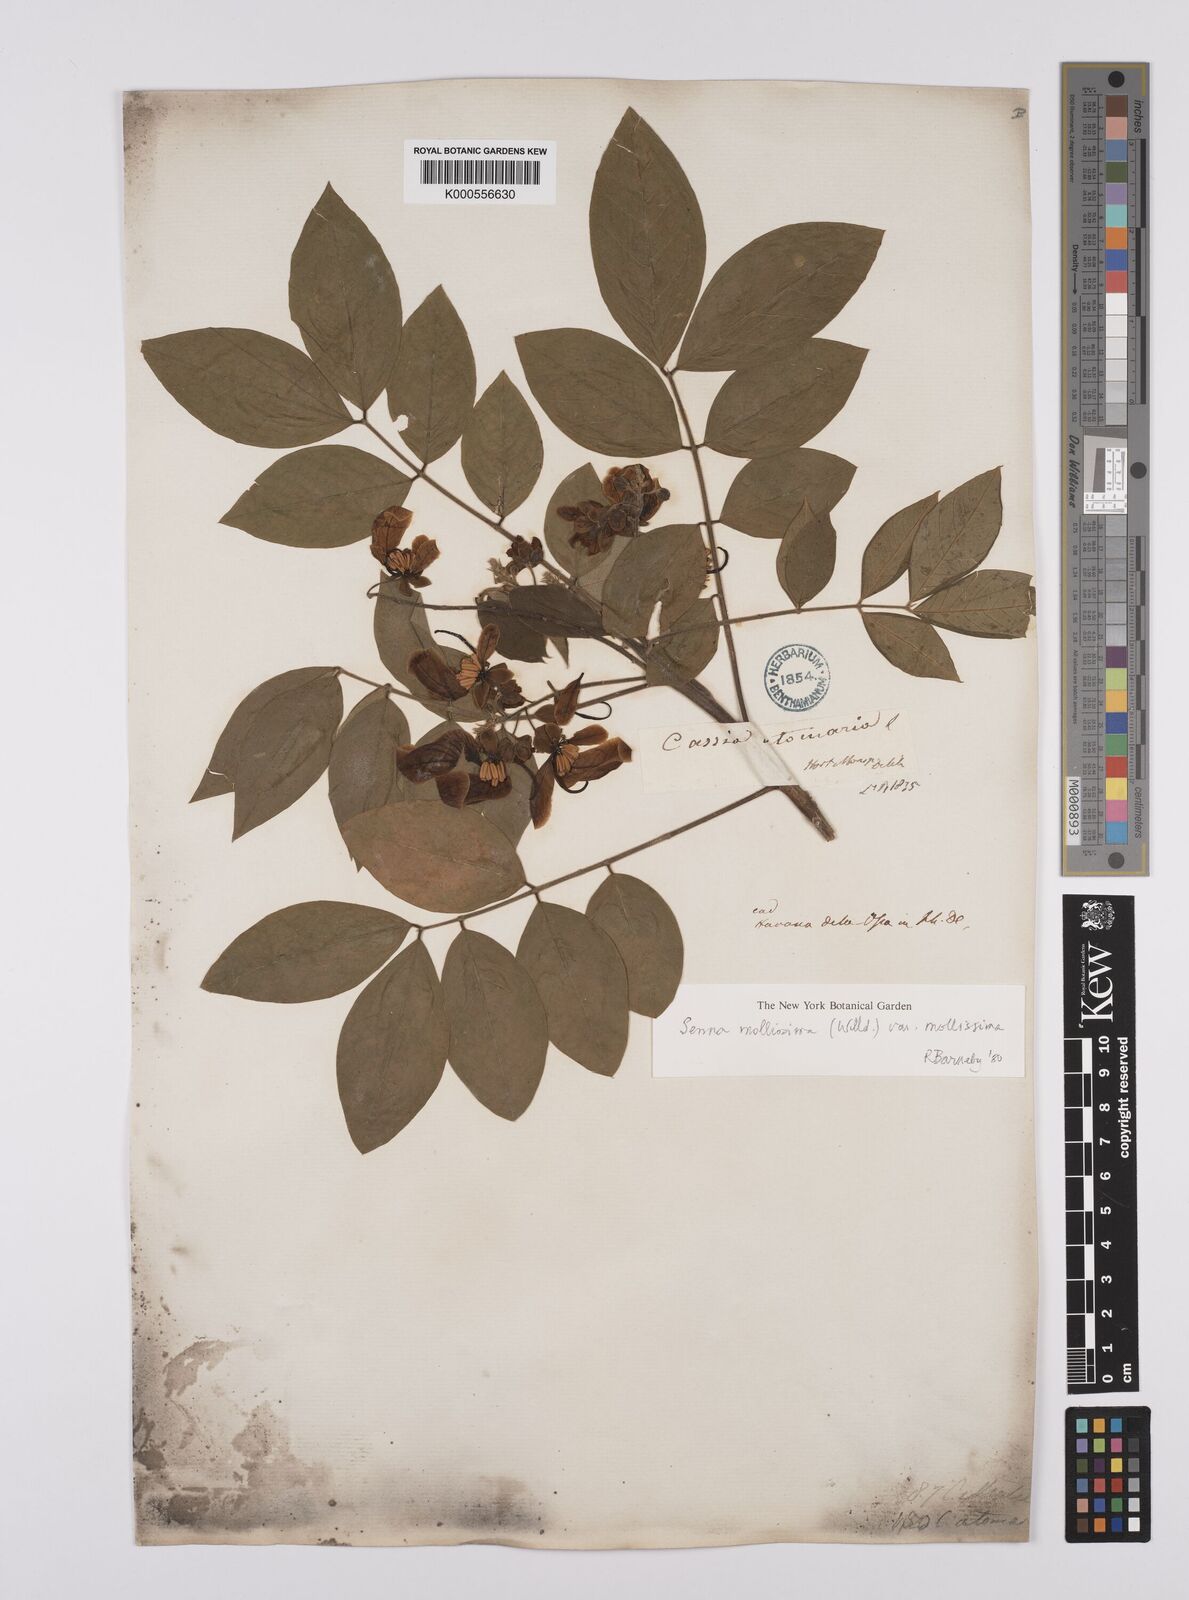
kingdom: Plantae
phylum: Tracheophyta
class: Magnoliopsida
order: Fabales
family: Fabaceae
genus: Senna
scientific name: Senna mollissima
